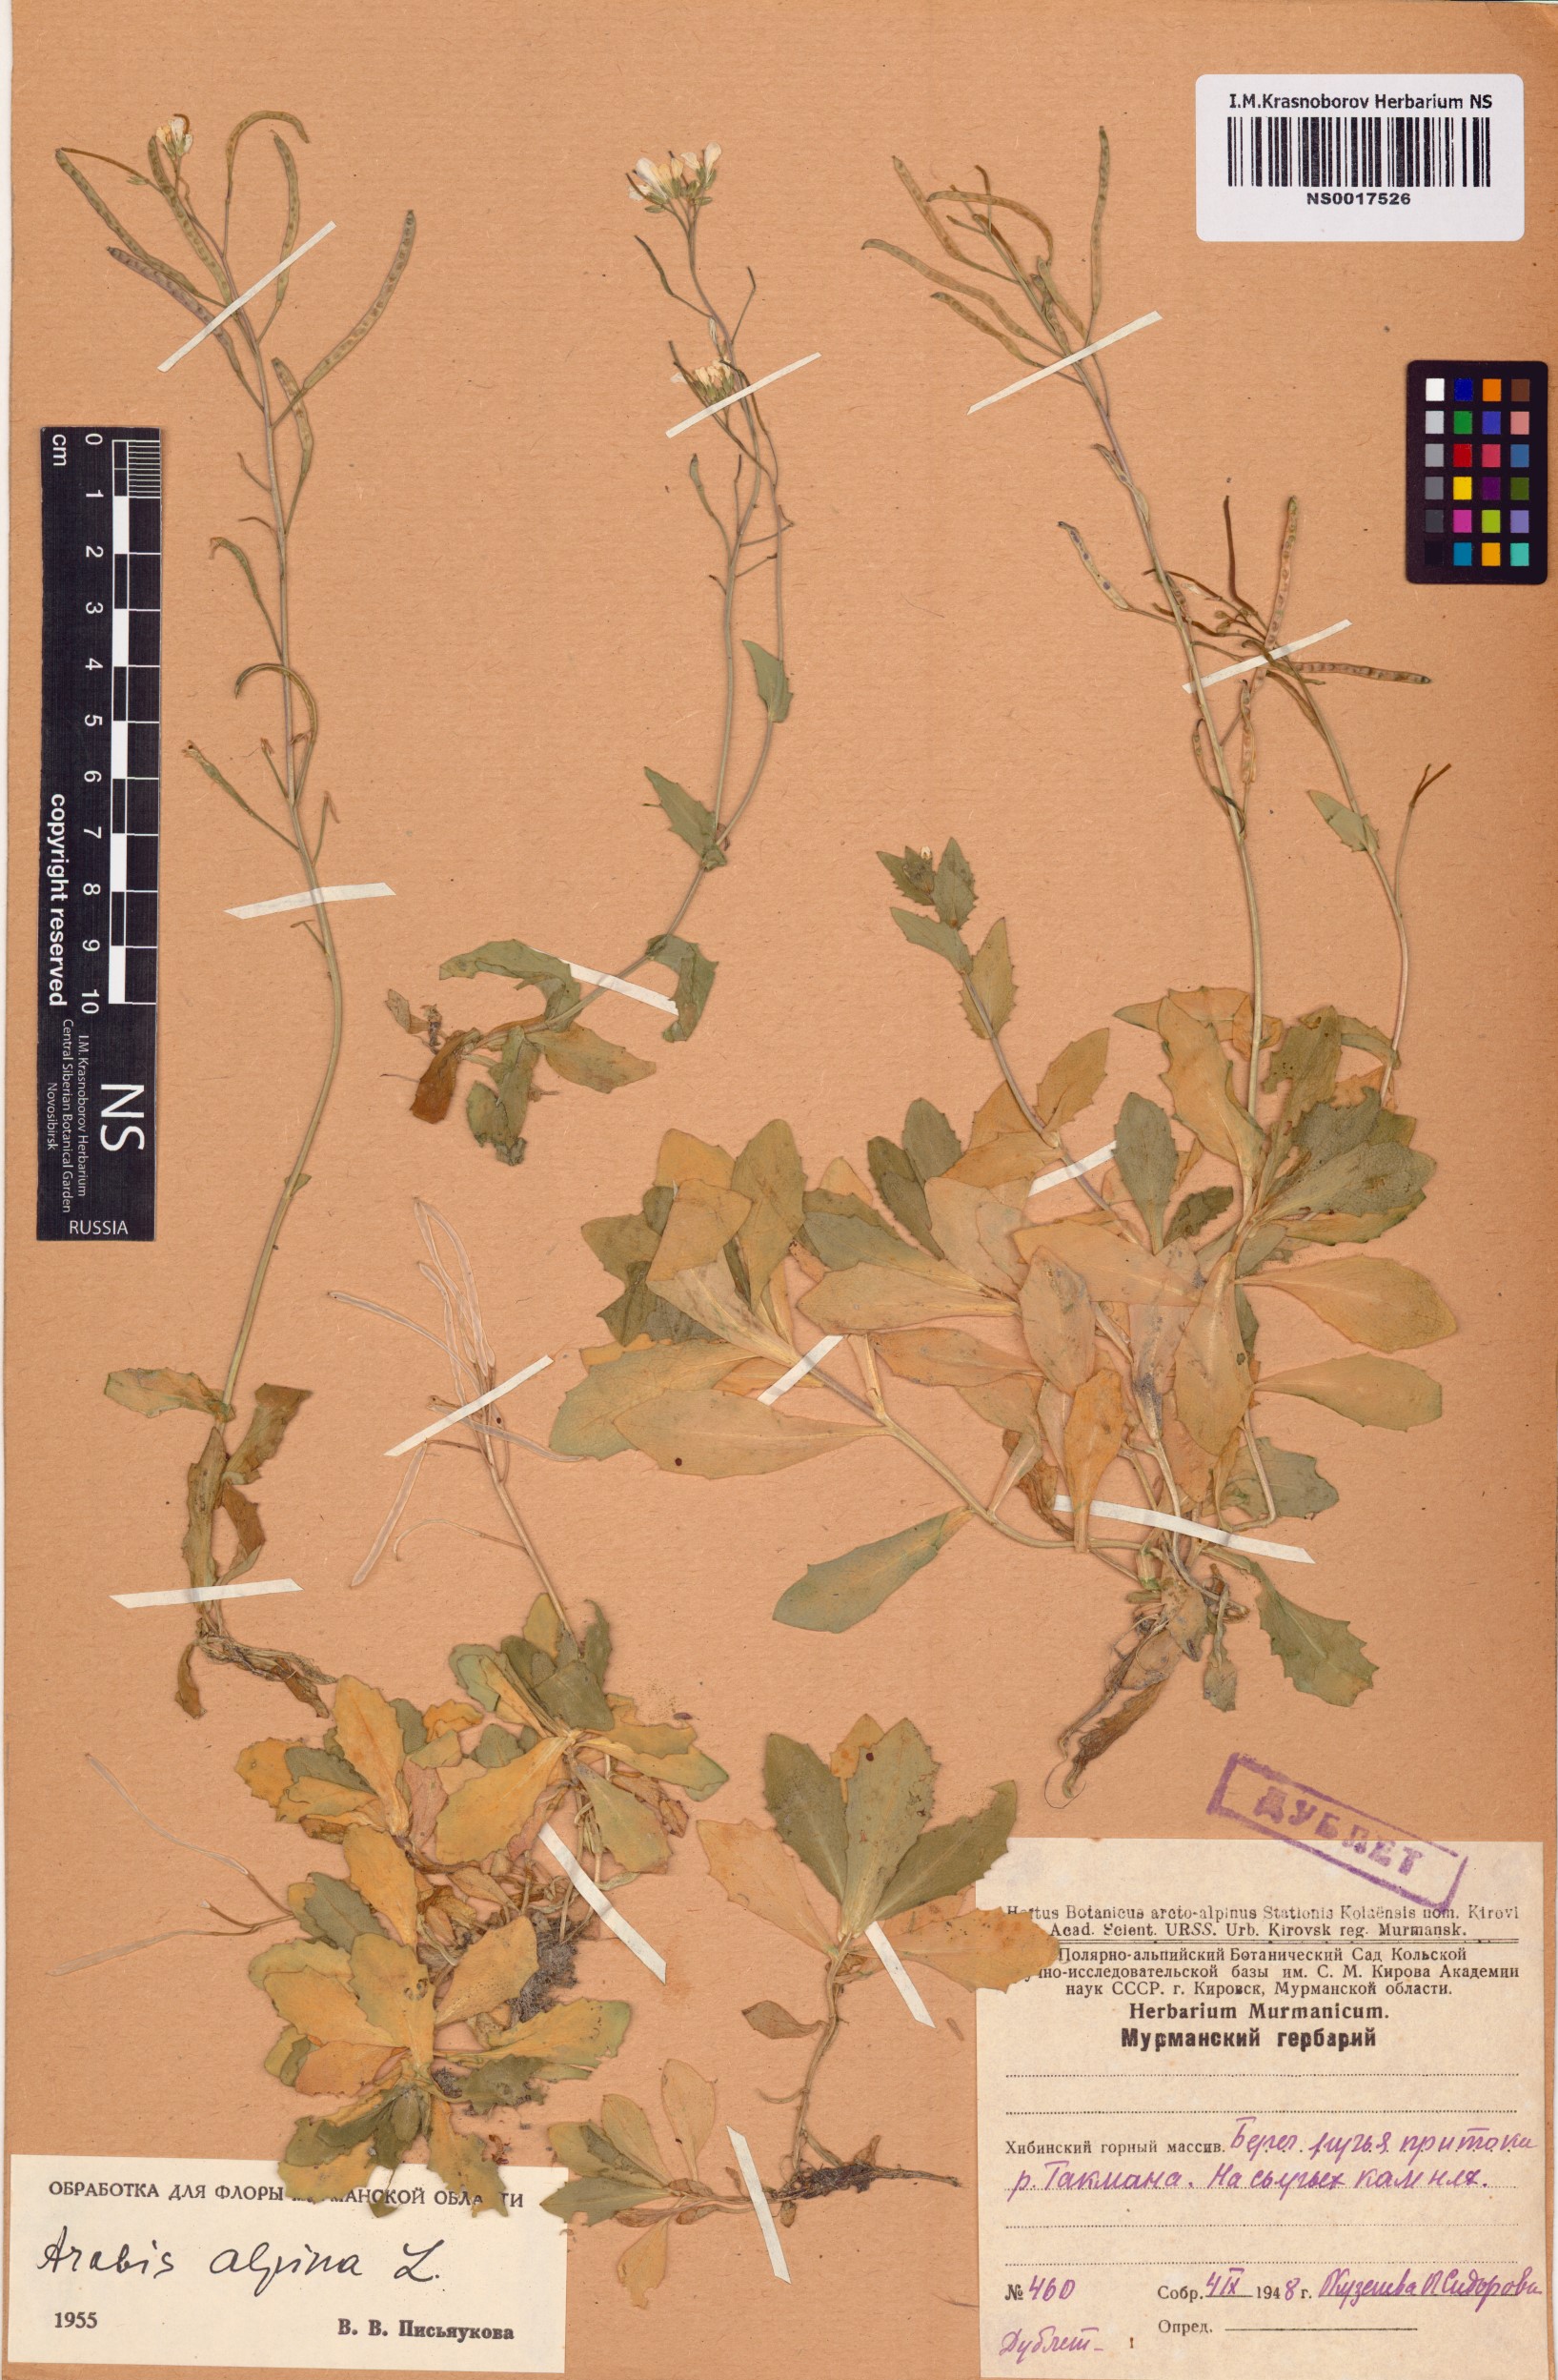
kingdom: Plantae
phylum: Tracheophyta
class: Magnoliopsida
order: Brassicales
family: Brassicaceae
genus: Arabis
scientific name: Arabis alpina
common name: Alpine rock-cress
